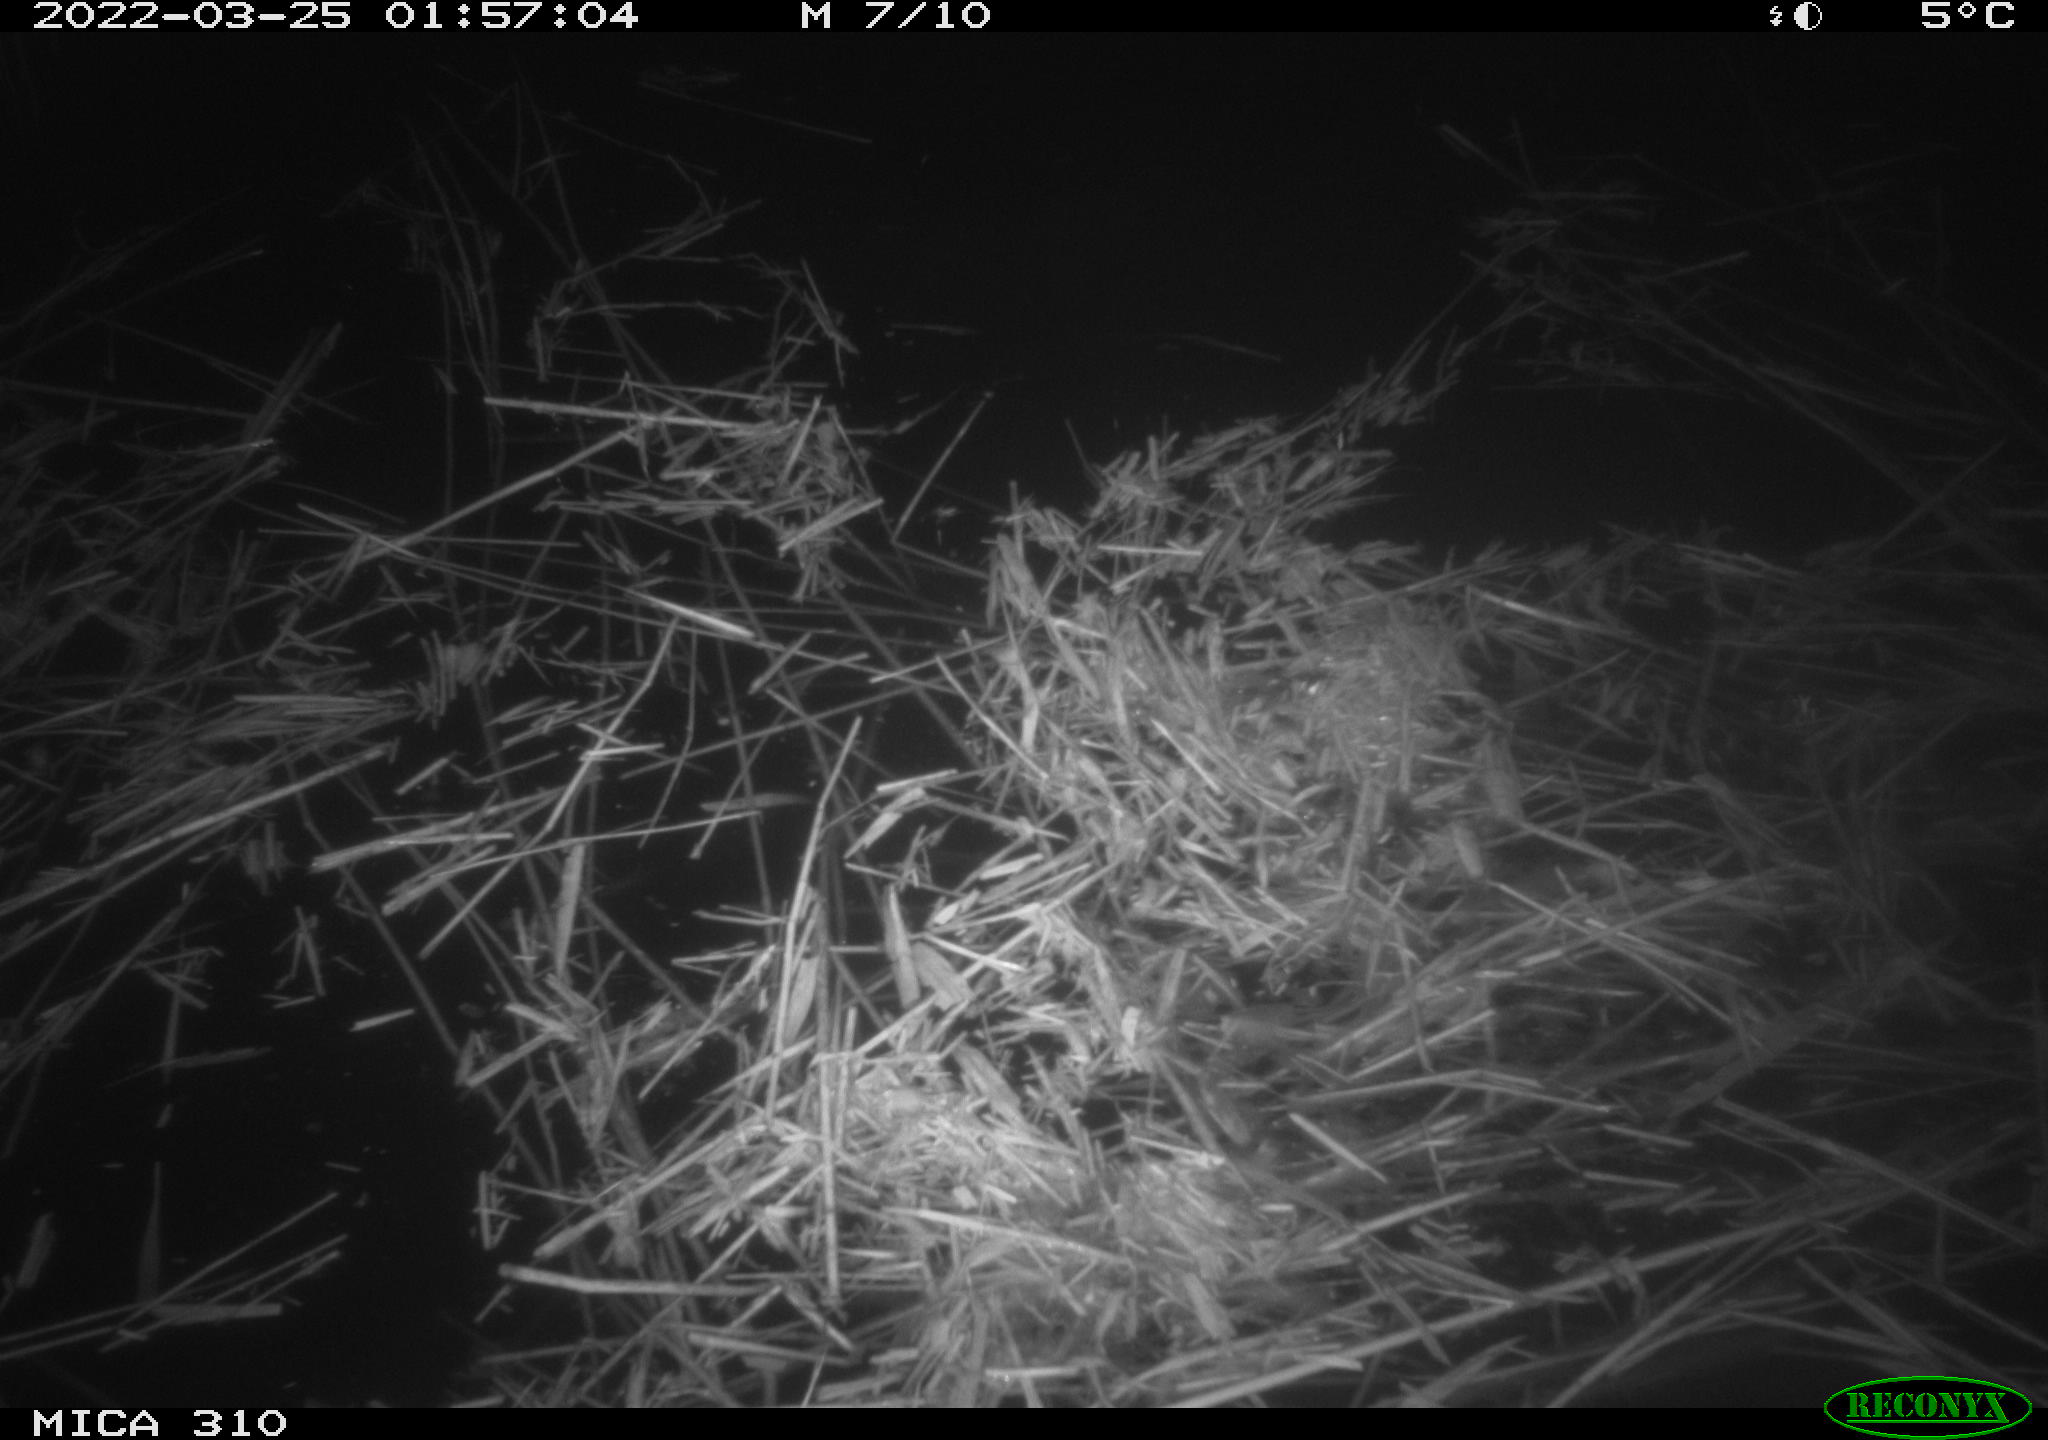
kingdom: Animalia
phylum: Chordata
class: Aves
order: Anseriformes
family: Anatidae
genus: Anas
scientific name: Anas platyrhynchos
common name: Mallard
